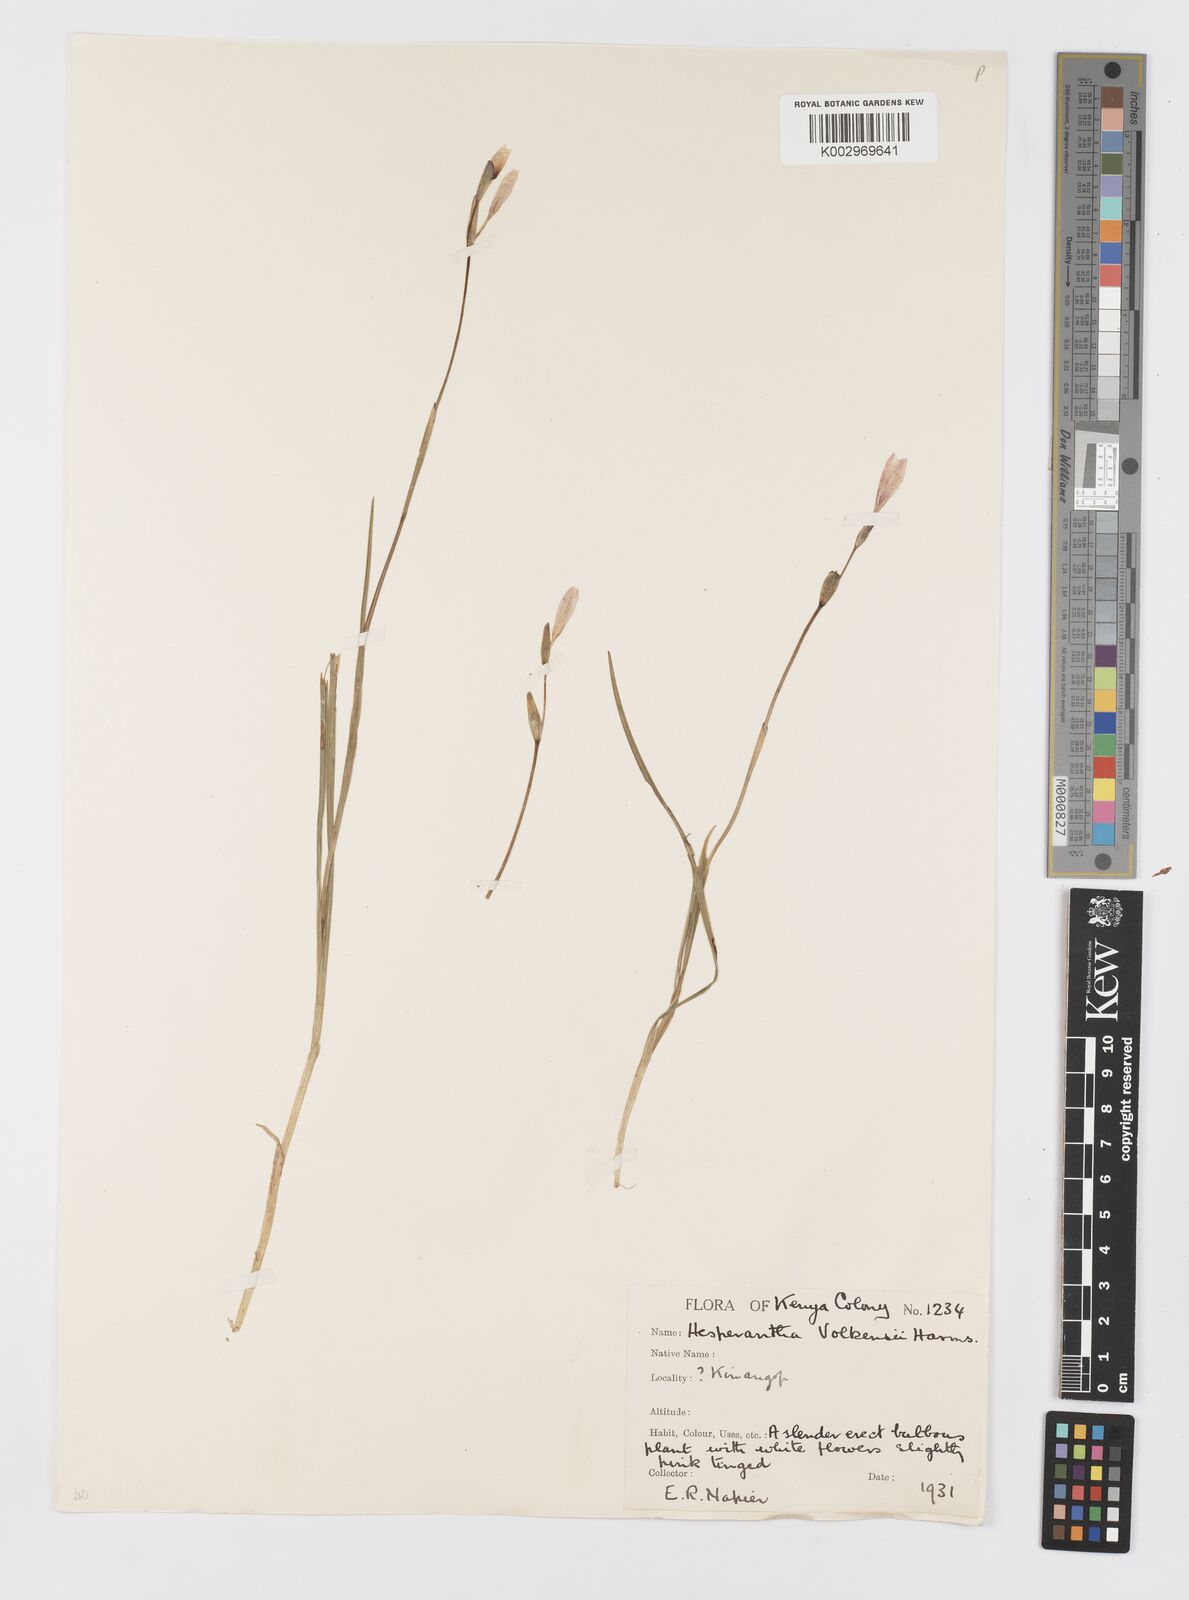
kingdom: Plantae
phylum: Tracheophyta
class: Liliopsida
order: Asparagales
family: Iridaceae
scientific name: Iridaceae
